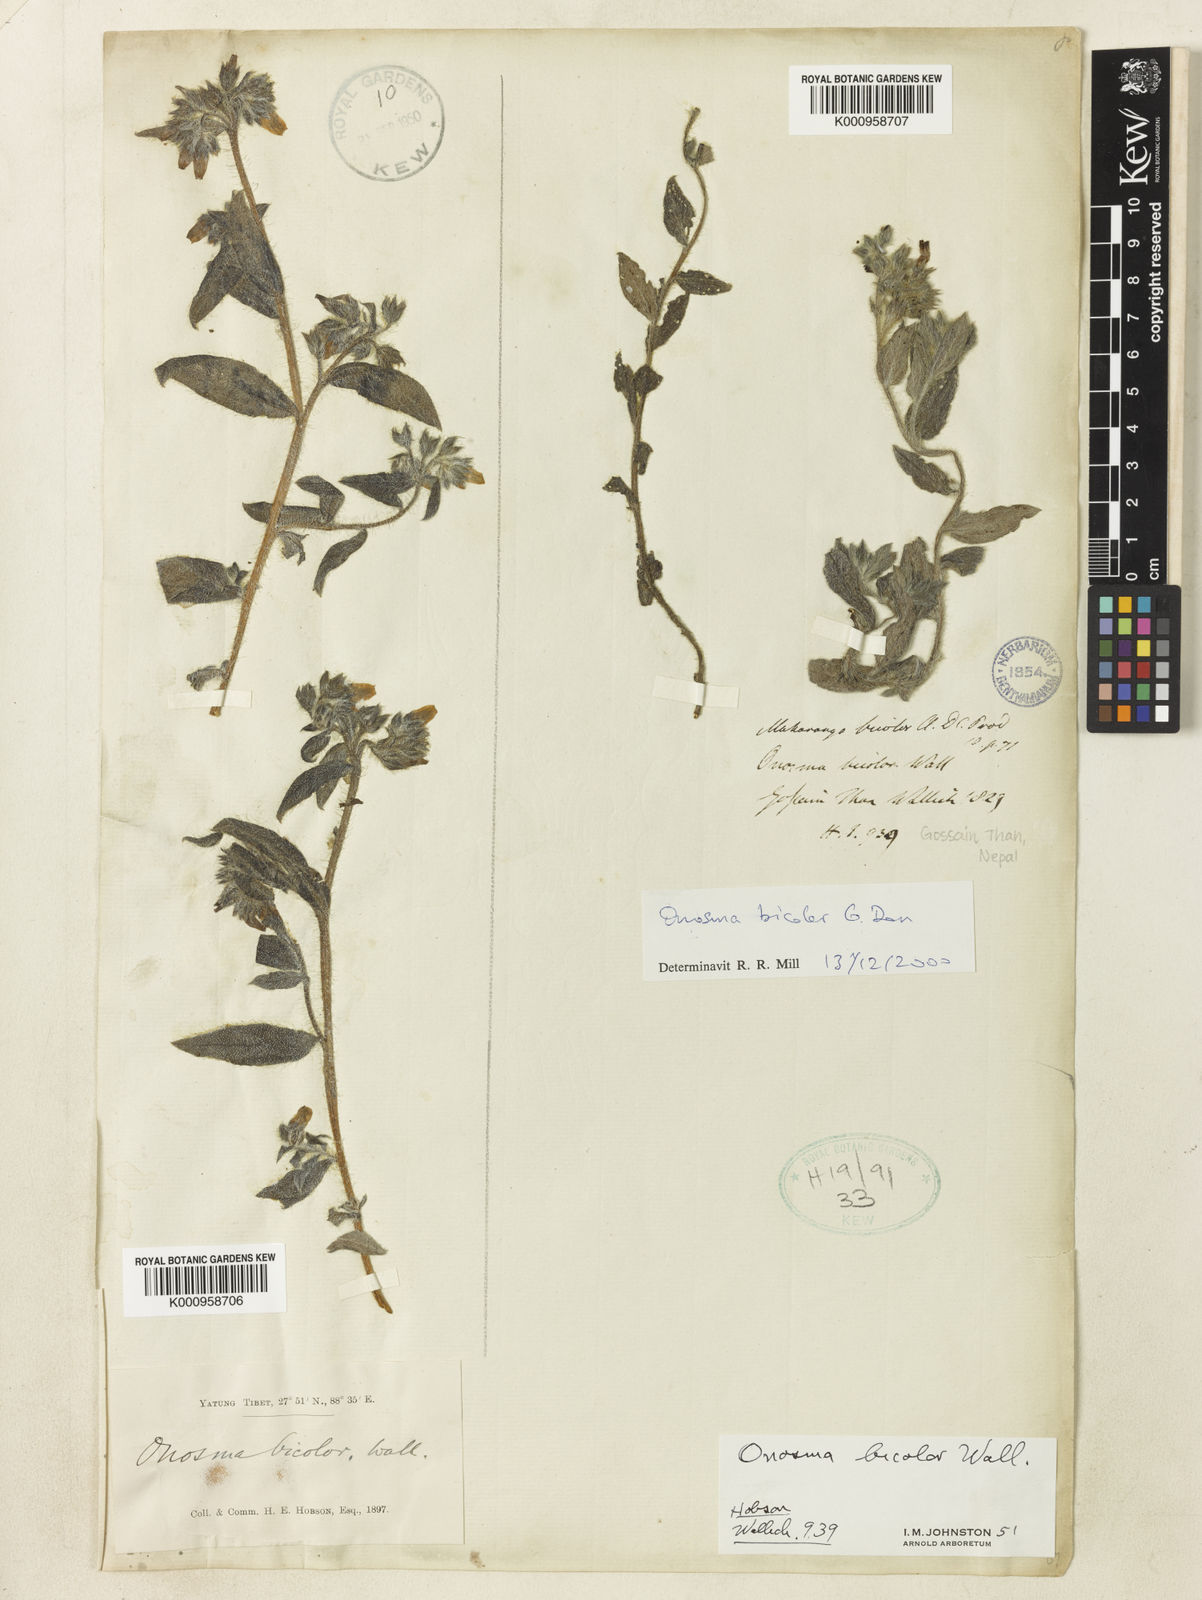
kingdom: Plantae
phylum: Tracheophyta
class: Magnoliopsida
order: Boraginales
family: Boraginaceae
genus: Maharanga
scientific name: Maharanga bicolor
